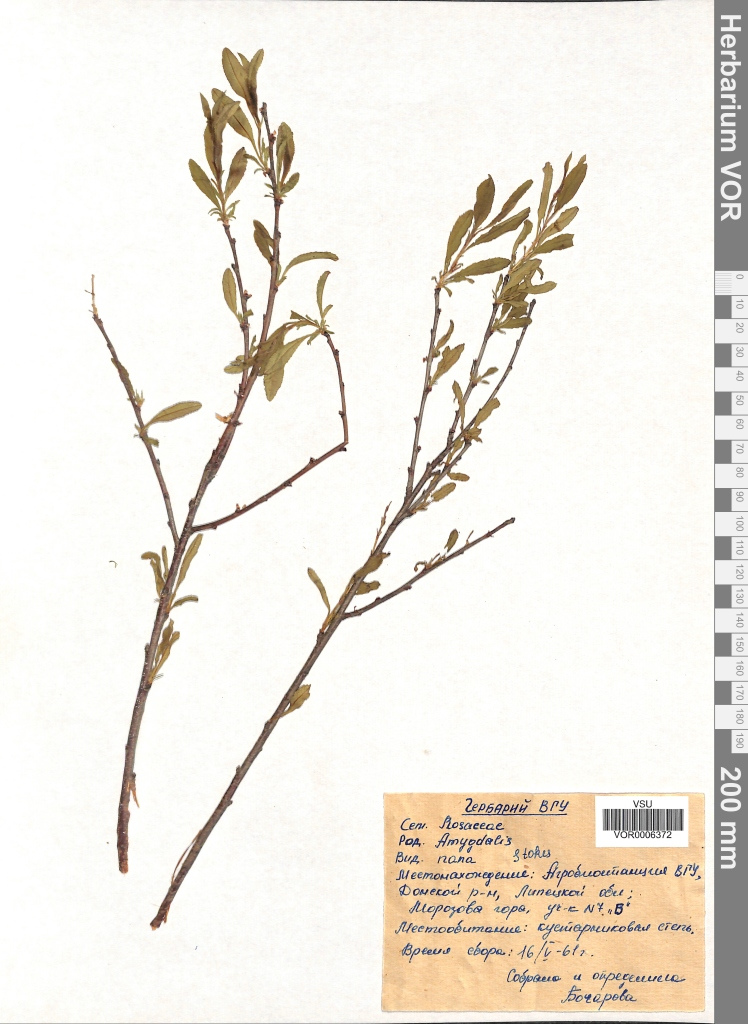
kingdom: Plantae
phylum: Tracheophyta
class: Magnoliopsida
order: Rosales
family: Rosaceae
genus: Prunus
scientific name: Prunus tenella
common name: Dwarf russian almond
